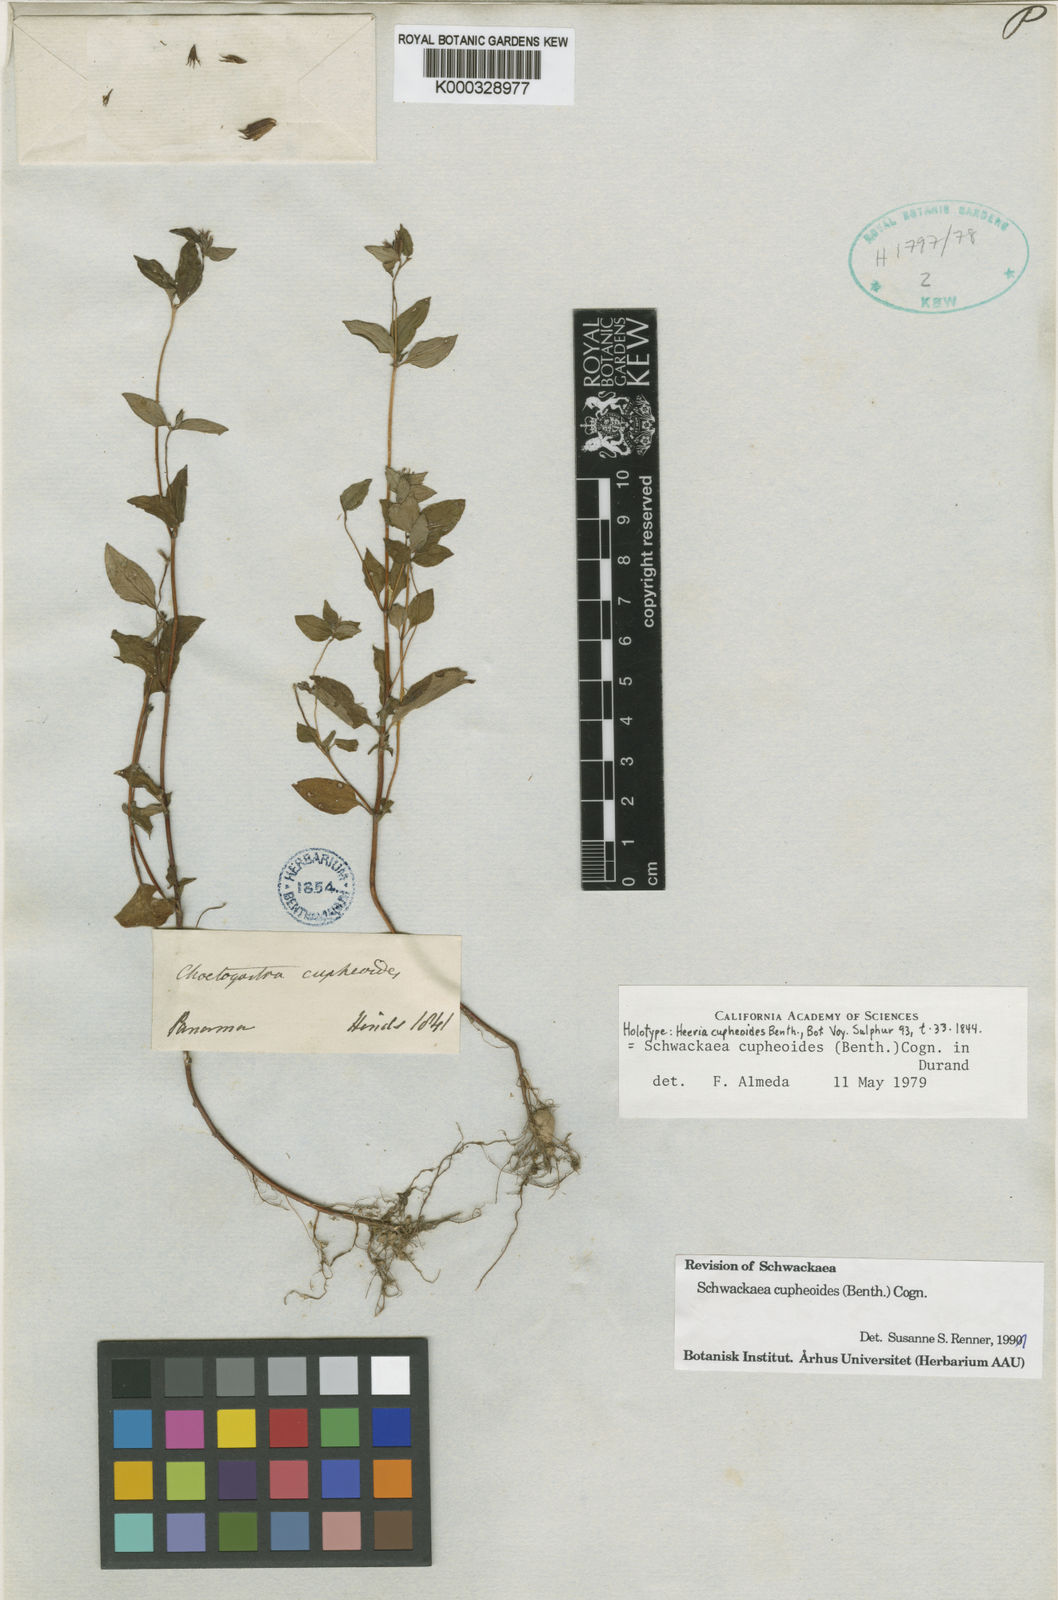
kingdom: Plantae
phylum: Tracheophyta
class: Magnoliopsida
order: Myrtales
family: Melastomataceae
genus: Schwackaea
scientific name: Schwackaea cupheoides
